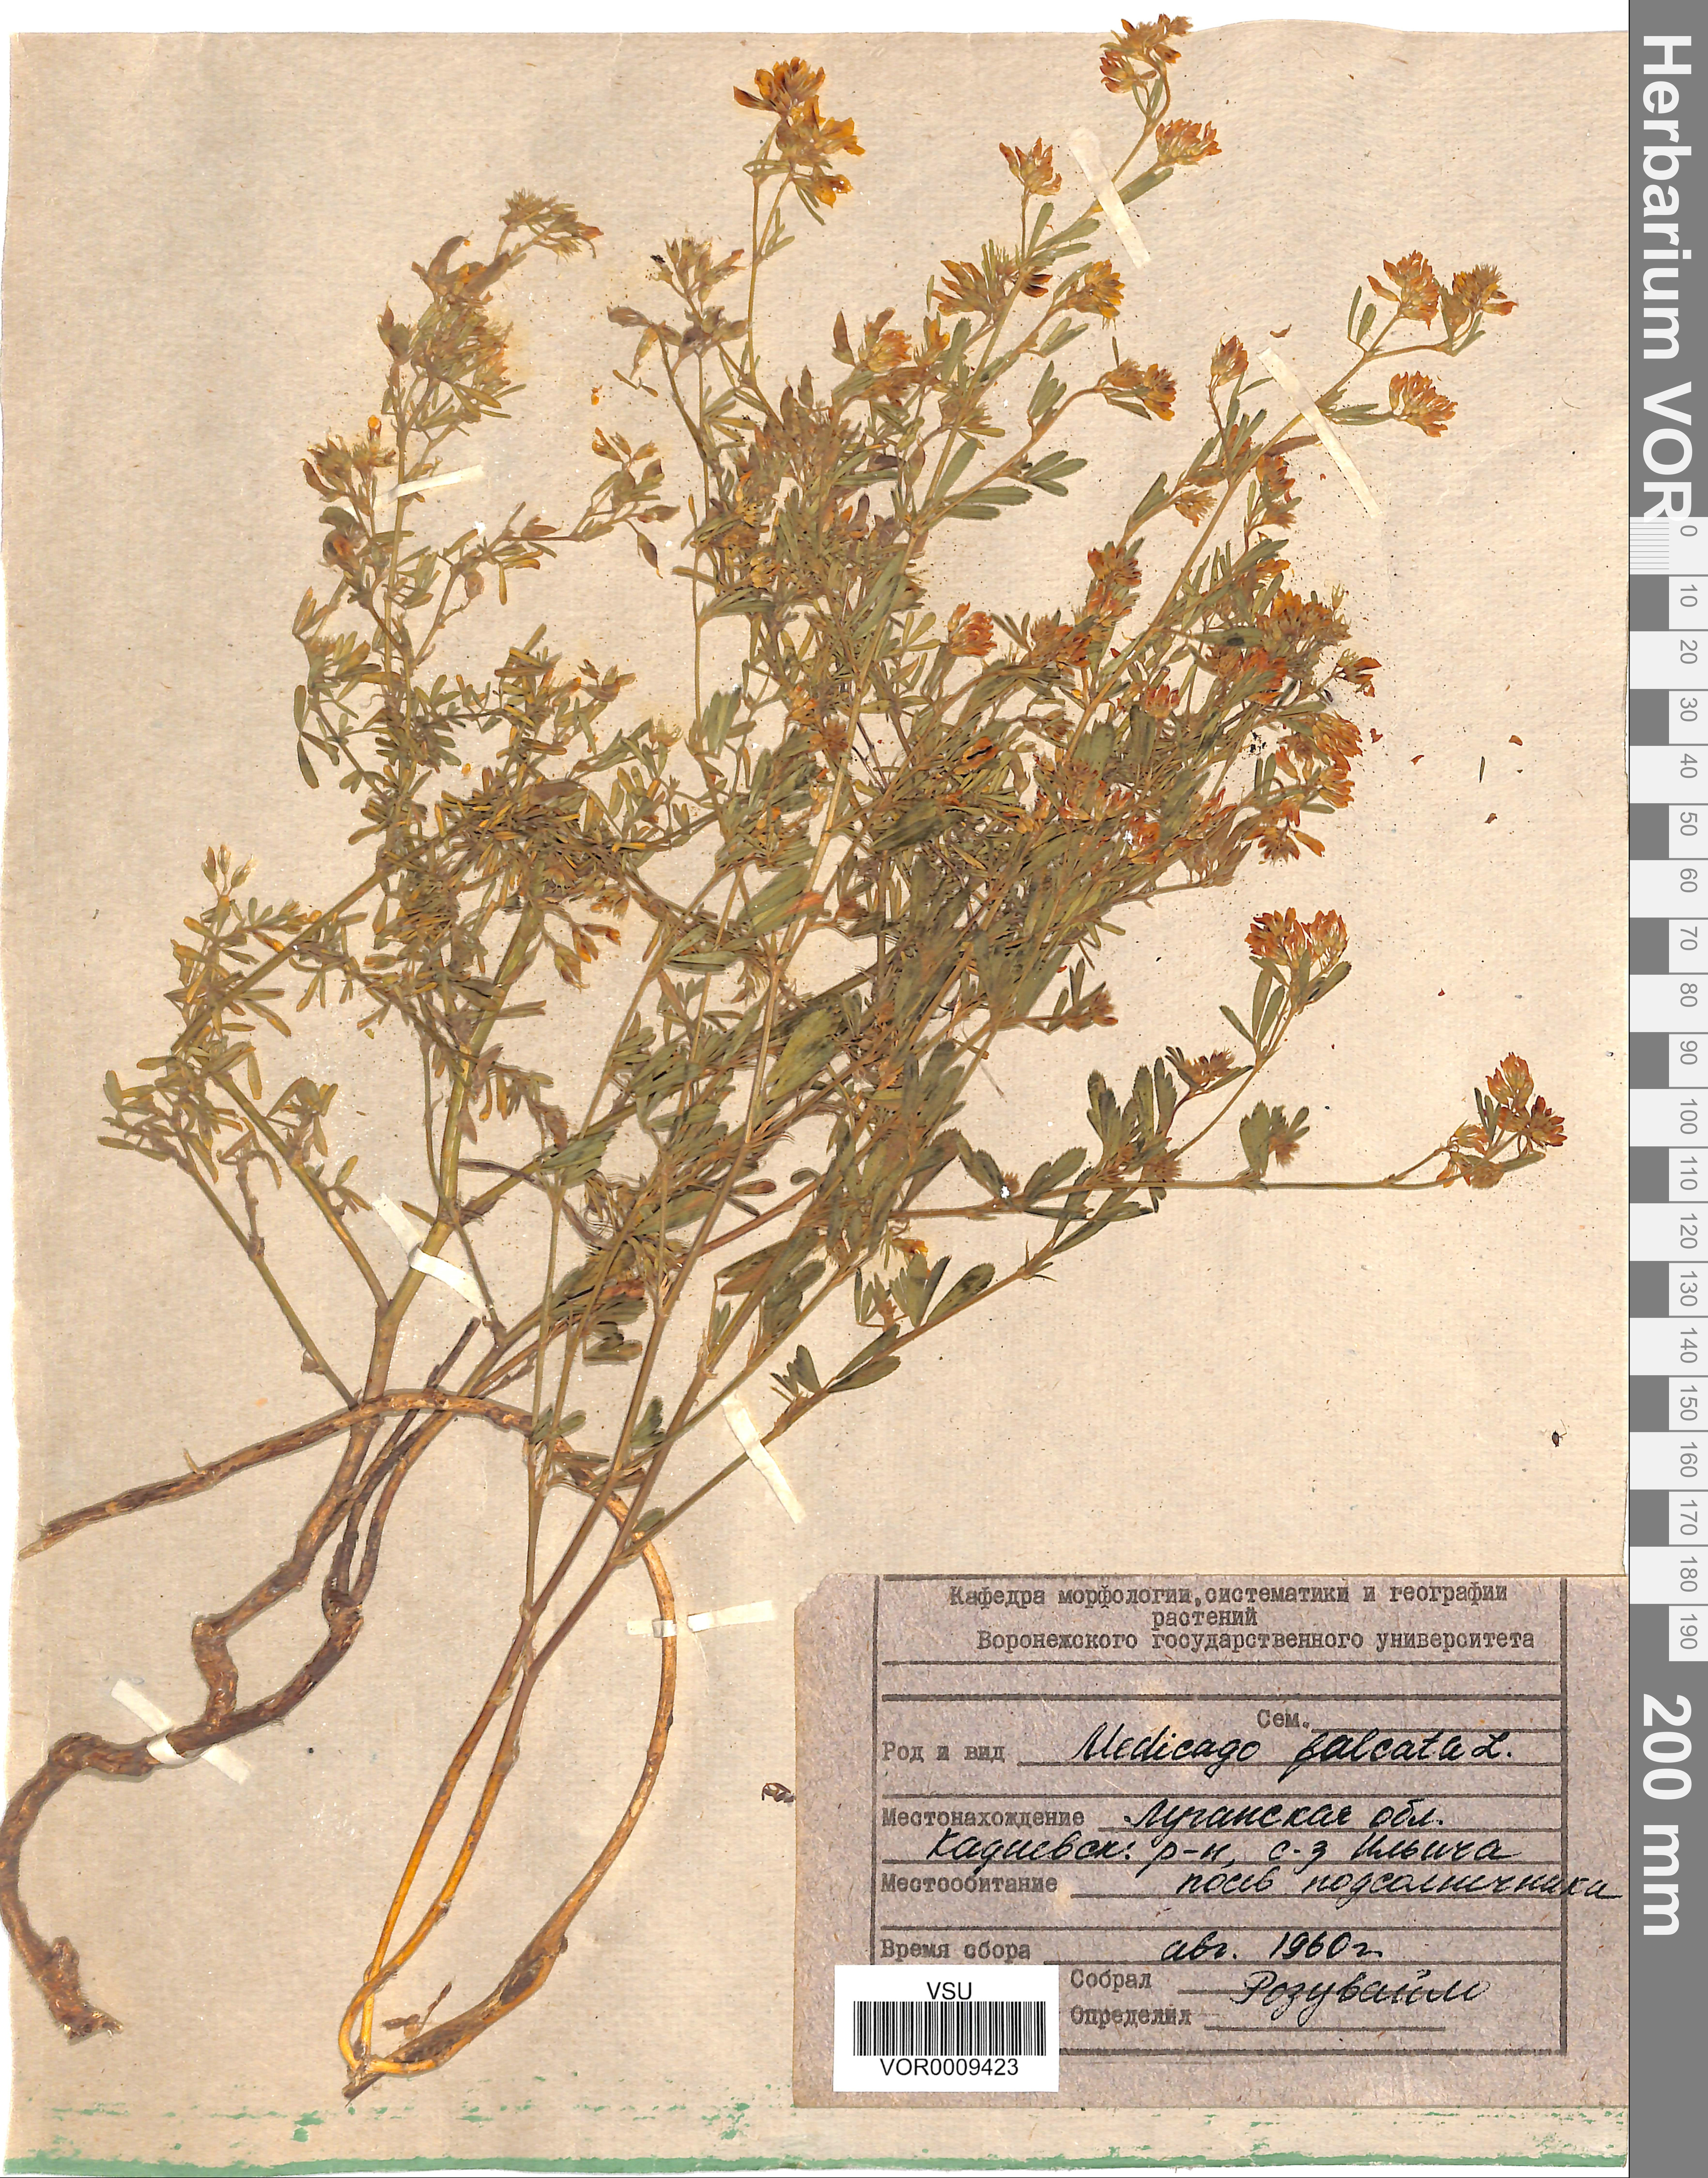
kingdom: Plantae
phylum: Tracheophyta
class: Magnoliopsida
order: Fabales
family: Fabaceae
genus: Medicago
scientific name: Medicago falcata
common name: Sickle medick
